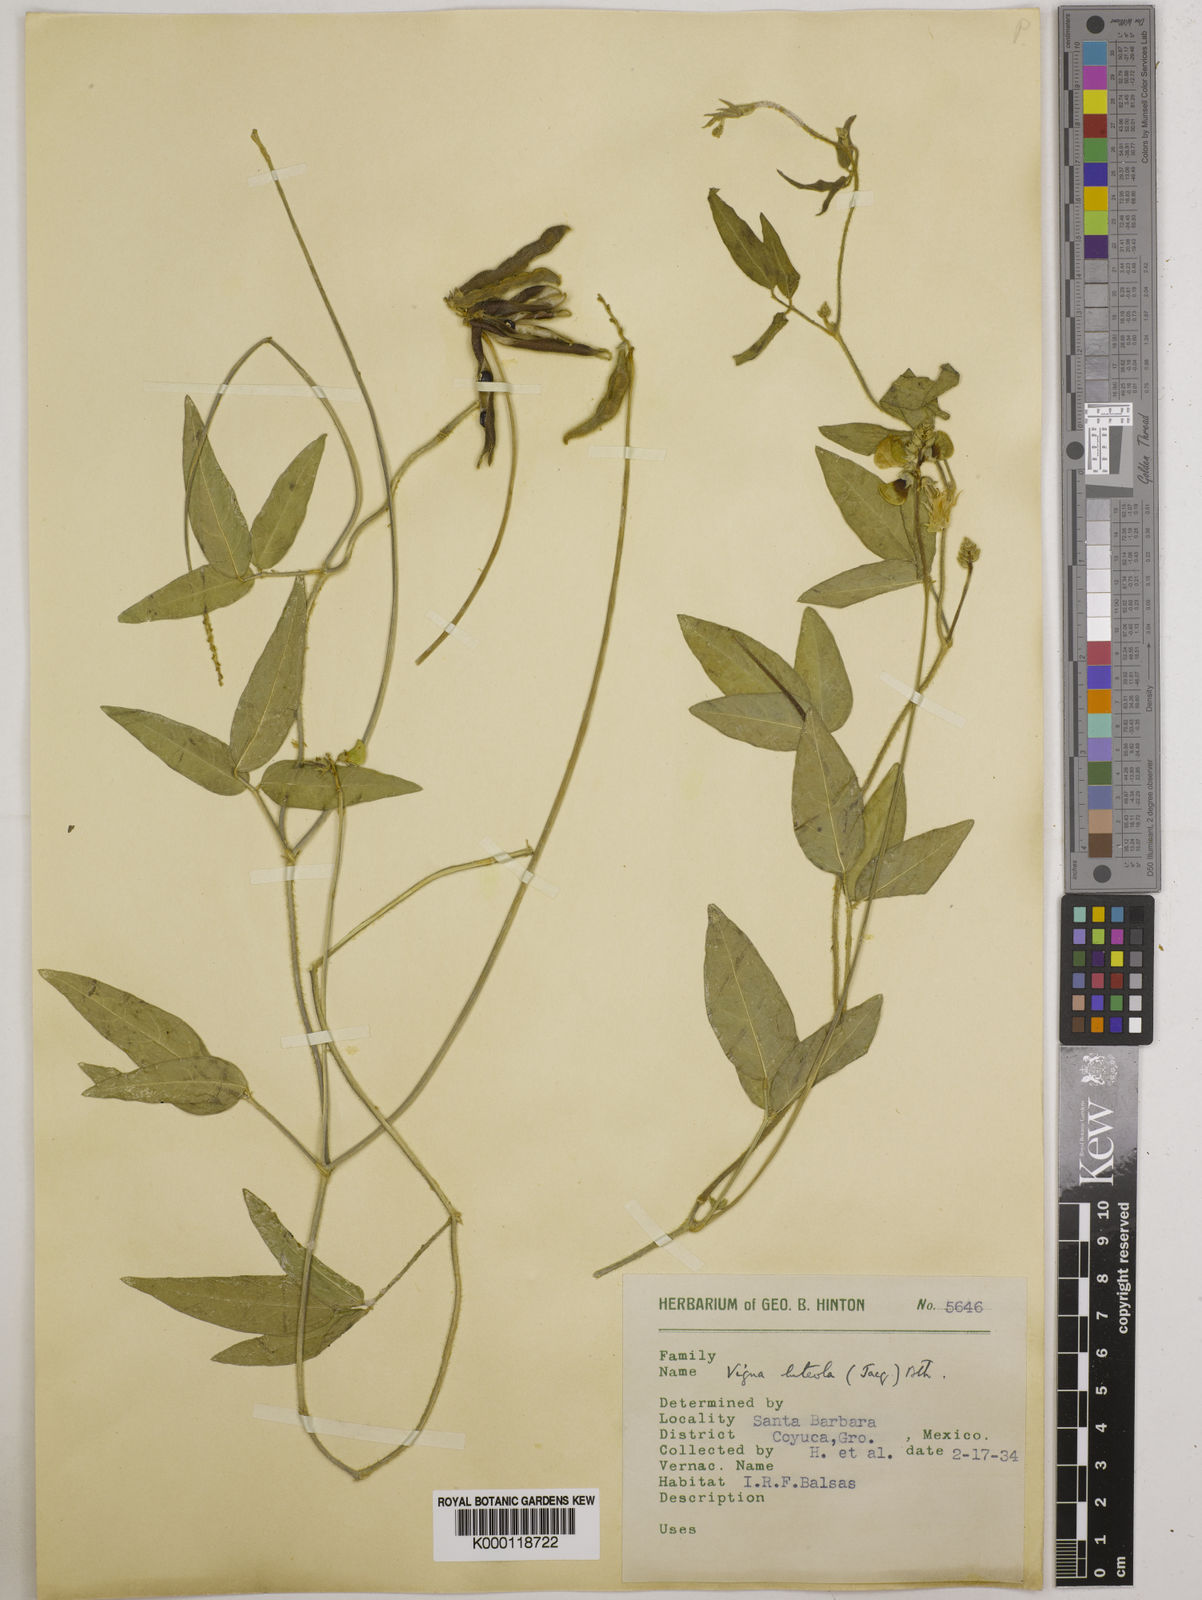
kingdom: Plantae
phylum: Tracheophyta
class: Magnoliopsida
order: Fabales
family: Fabaceae
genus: Vigna
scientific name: Vigna luteola
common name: Hairypod cowpea
